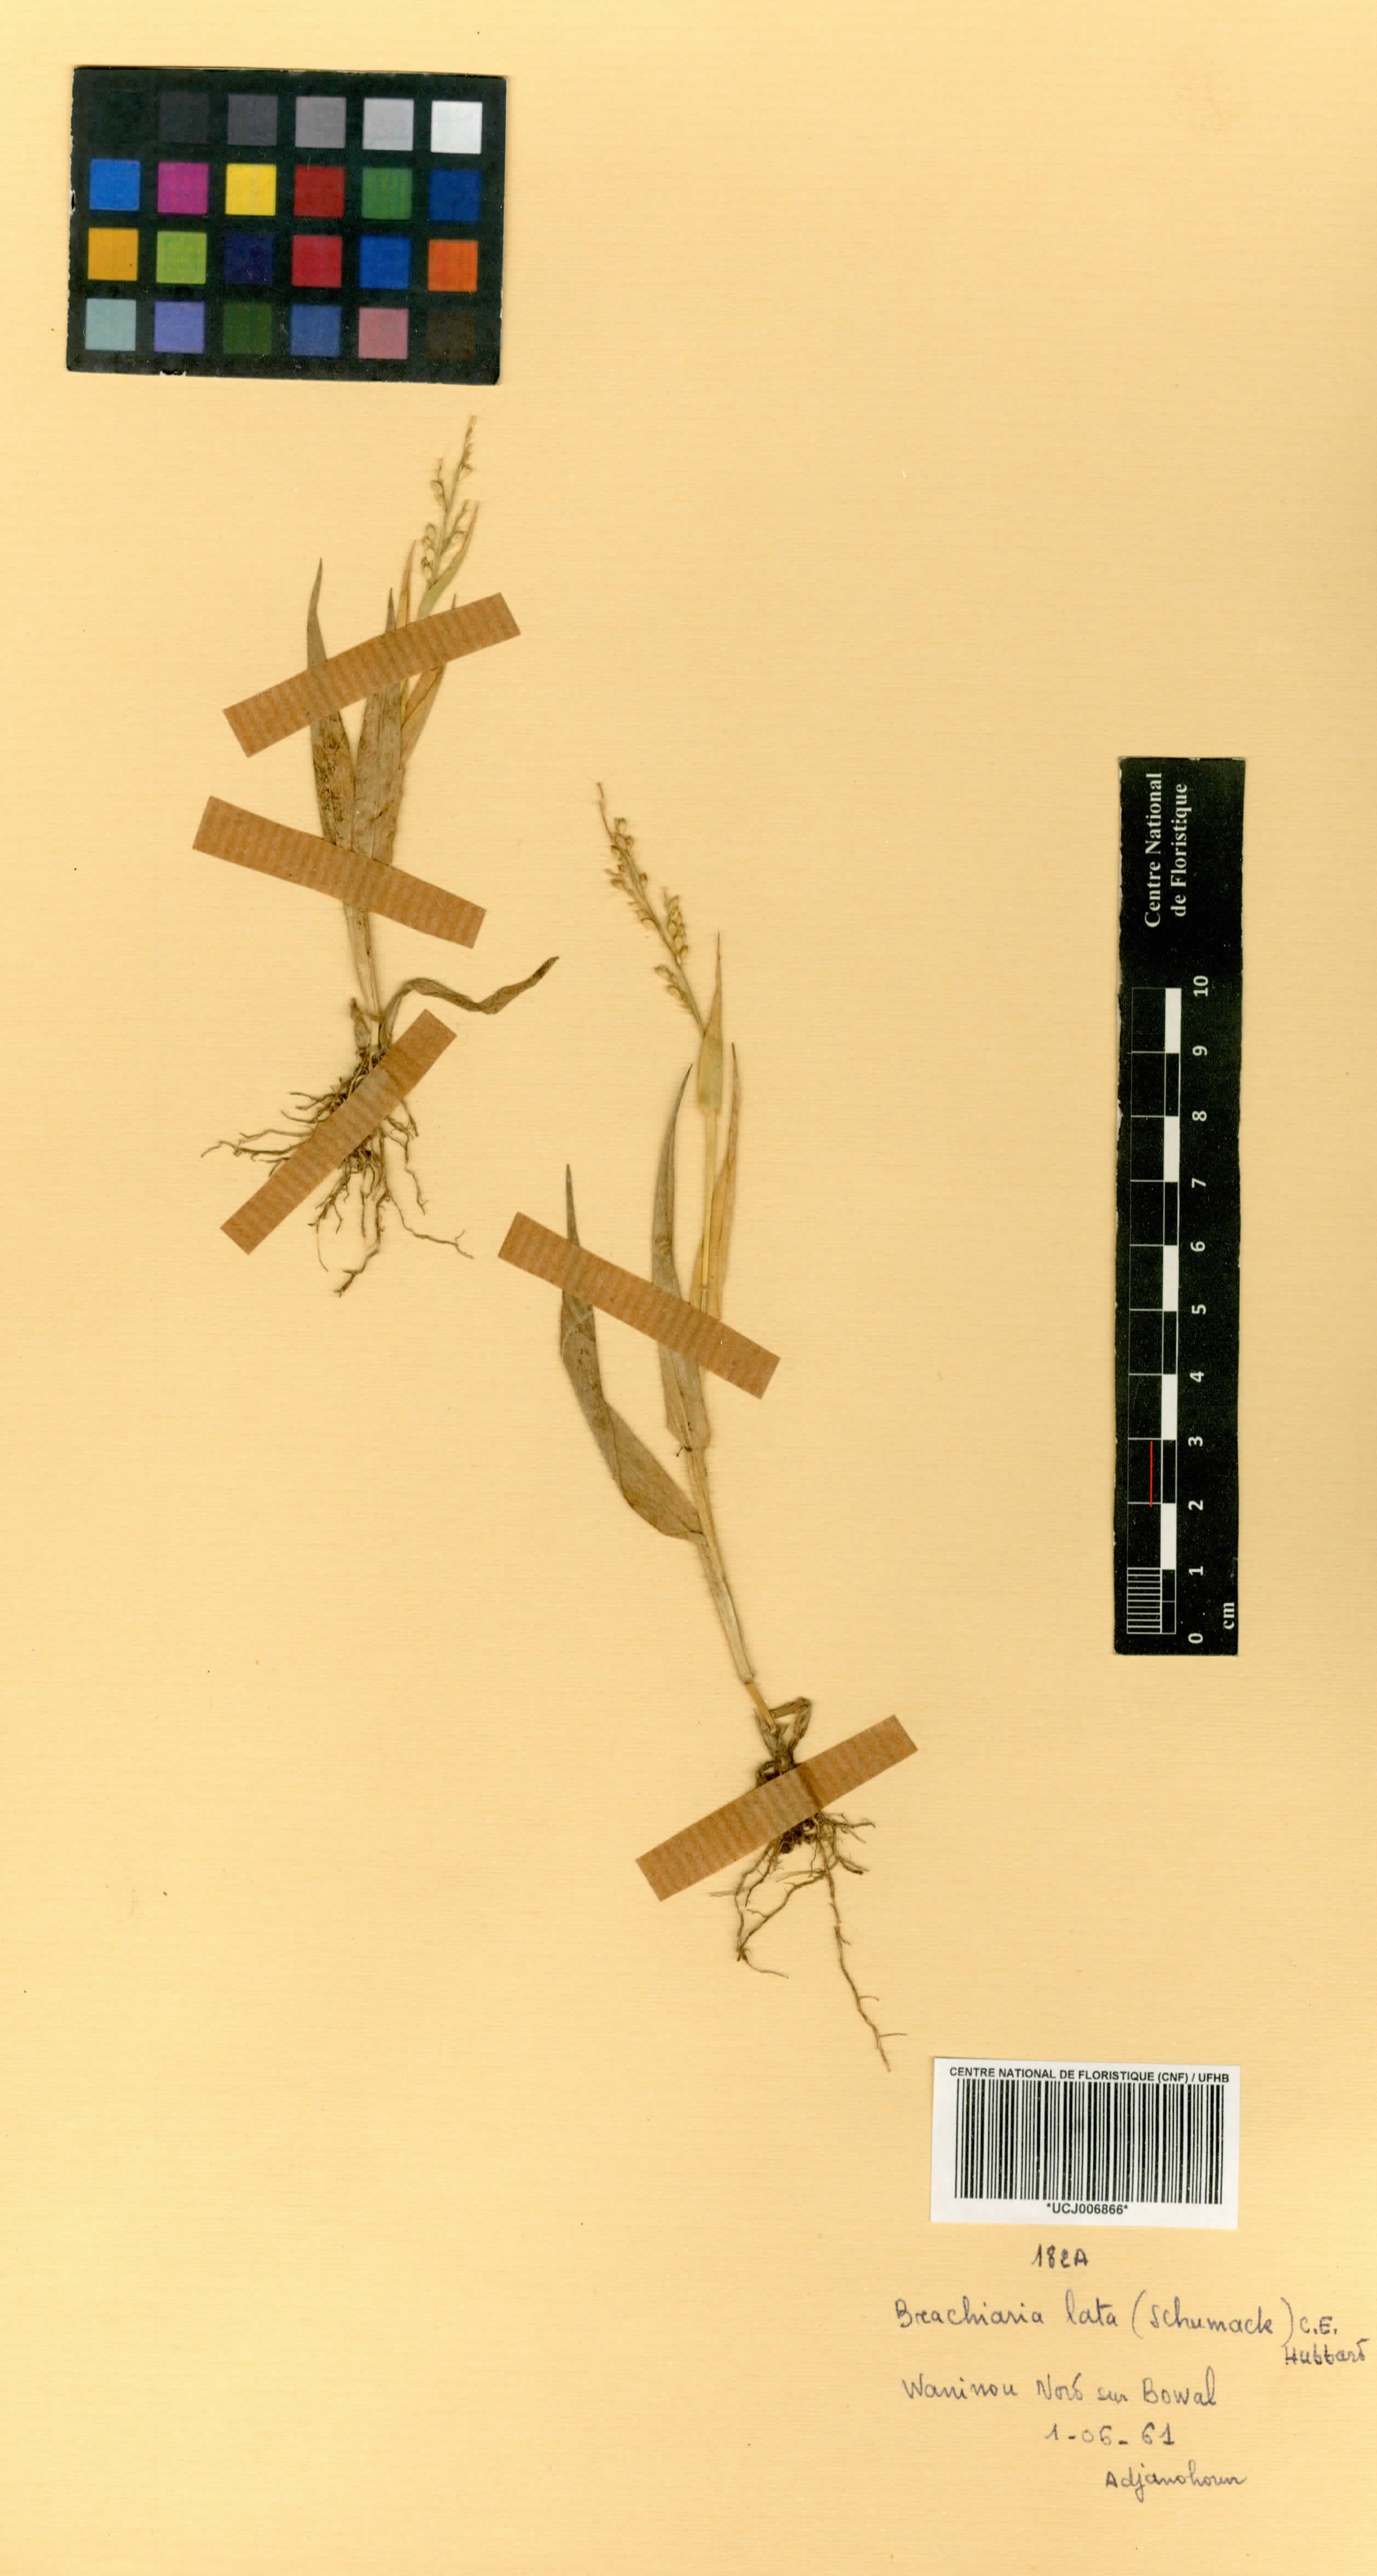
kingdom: Plantae
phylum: Tracheophyta
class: Liliopsida
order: Poales
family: Poaceae
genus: Urochloa
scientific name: Urochloa lata
